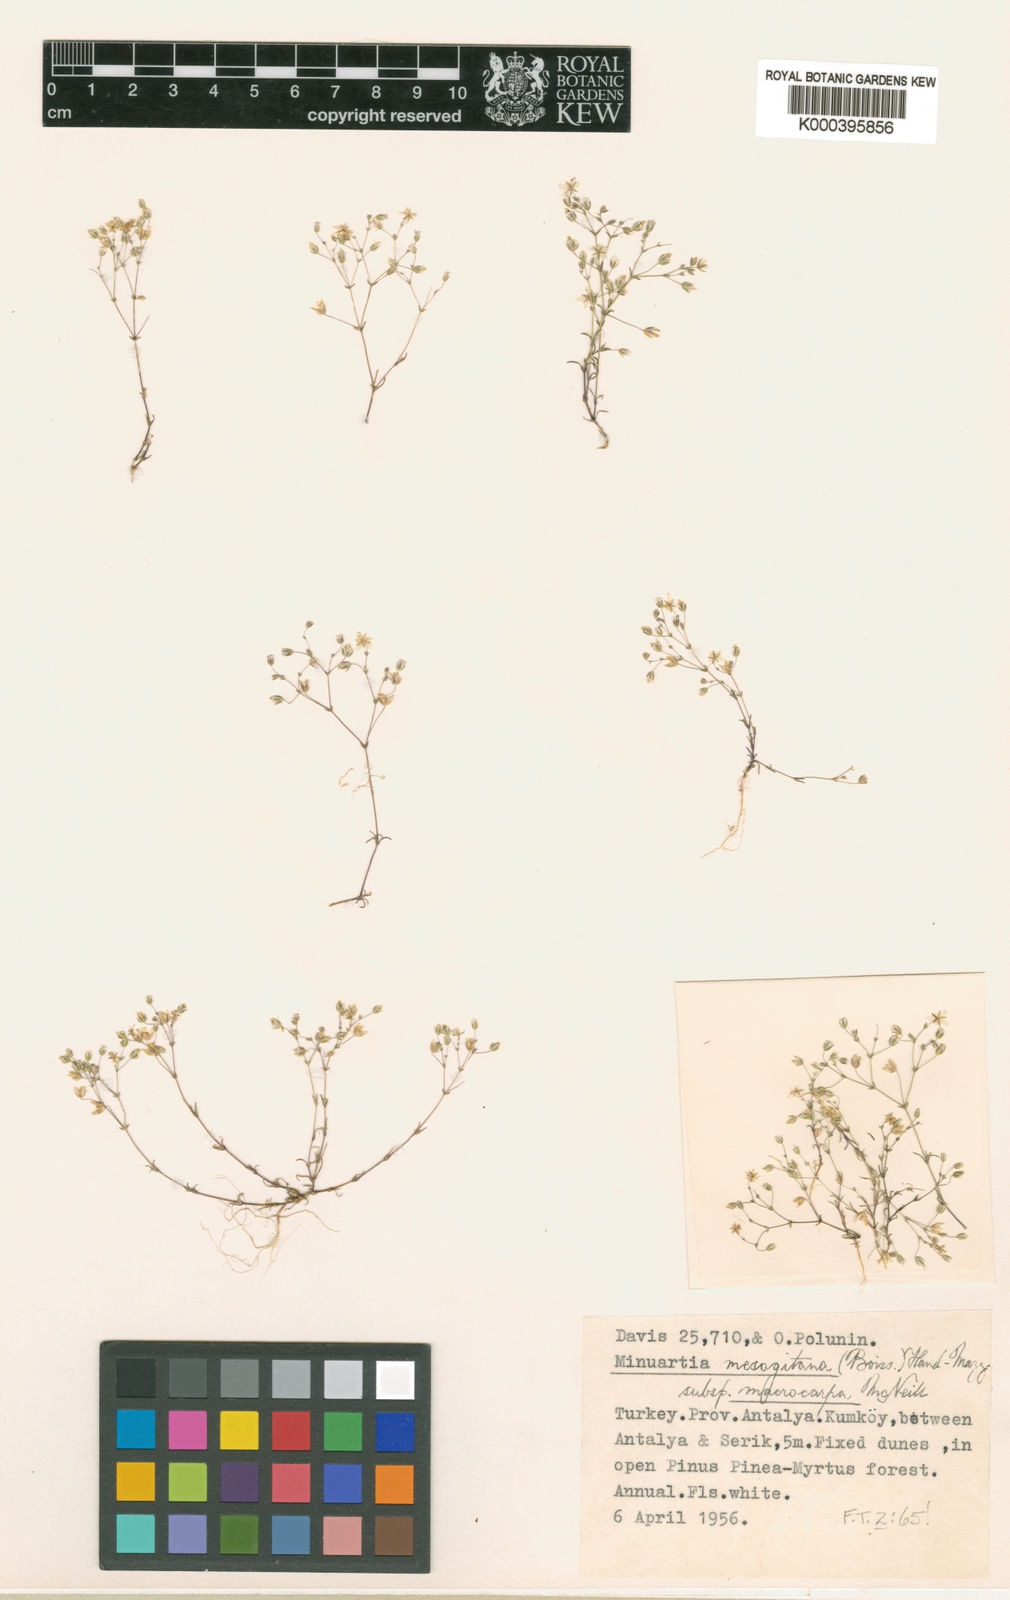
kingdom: Plantae
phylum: Tracheophyta
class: Magnoliopsida
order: Caryophyllales
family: Caryophyllaceae
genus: Sabulina
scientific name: Sabulina mesogitana
